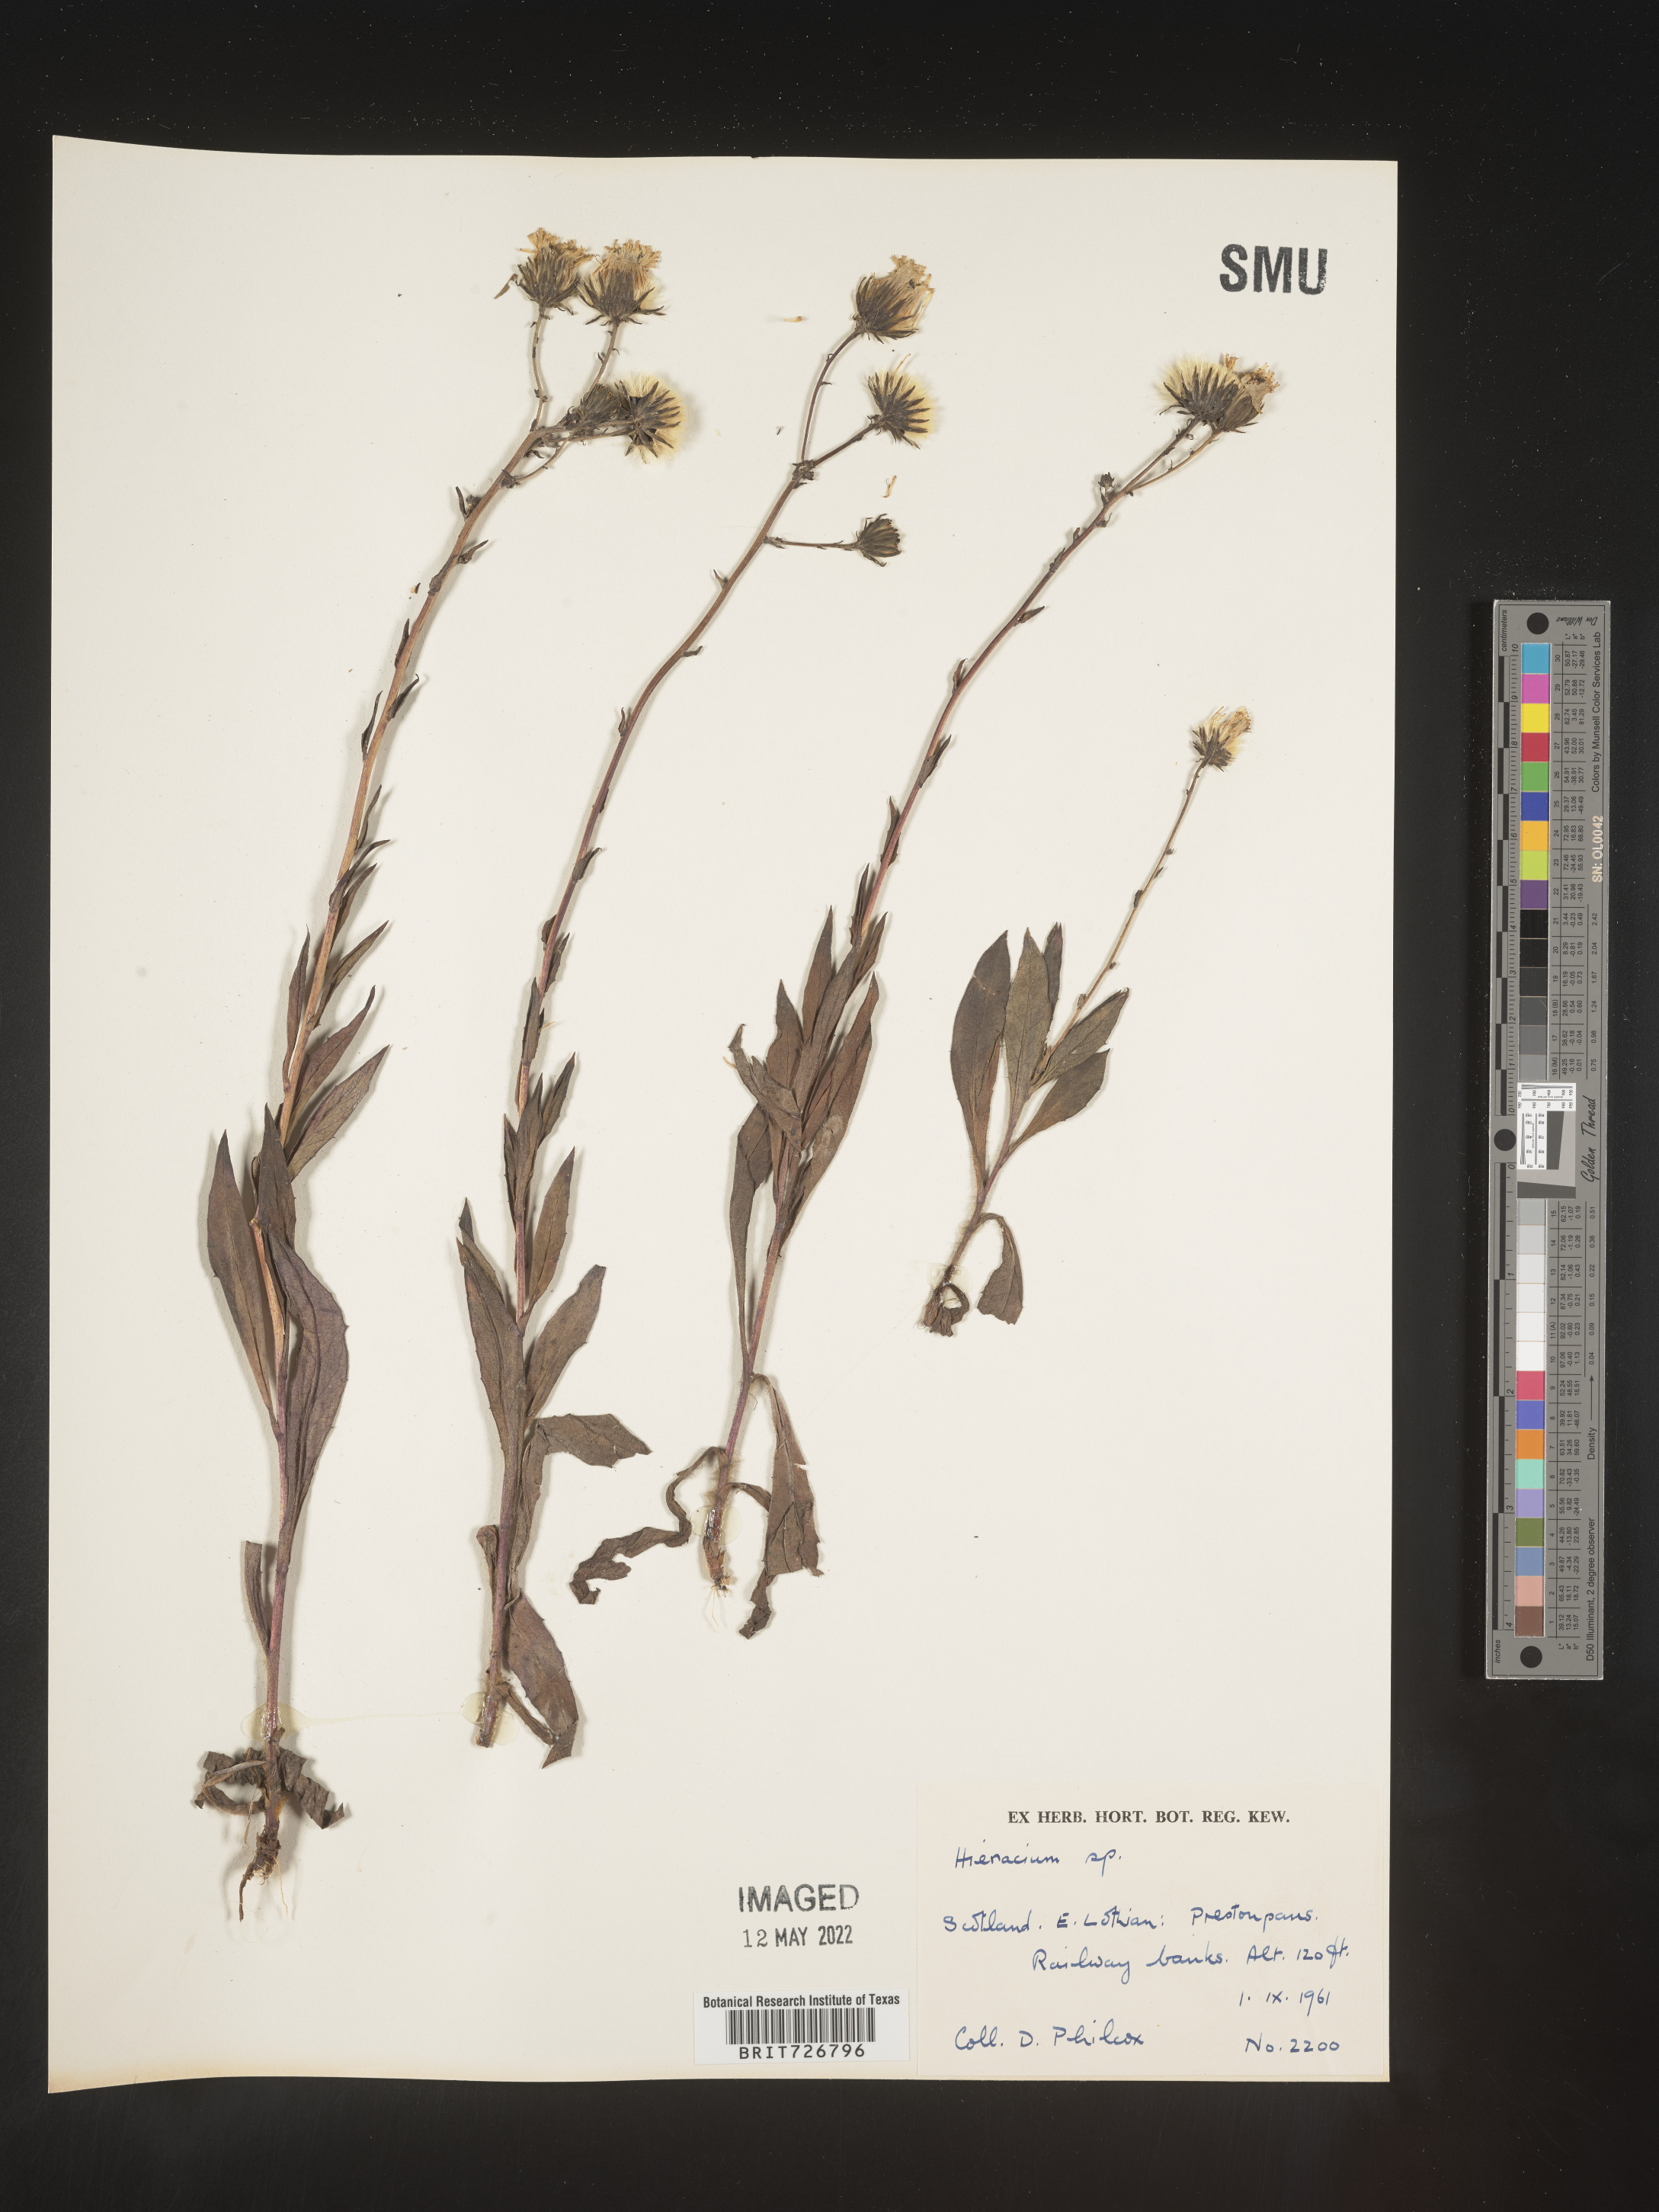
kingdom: Plantae
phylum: Tracheophyta
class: Magnoliopsida
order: Asterales
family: Asteraceae
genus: Hieracium
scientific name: Hieracium
